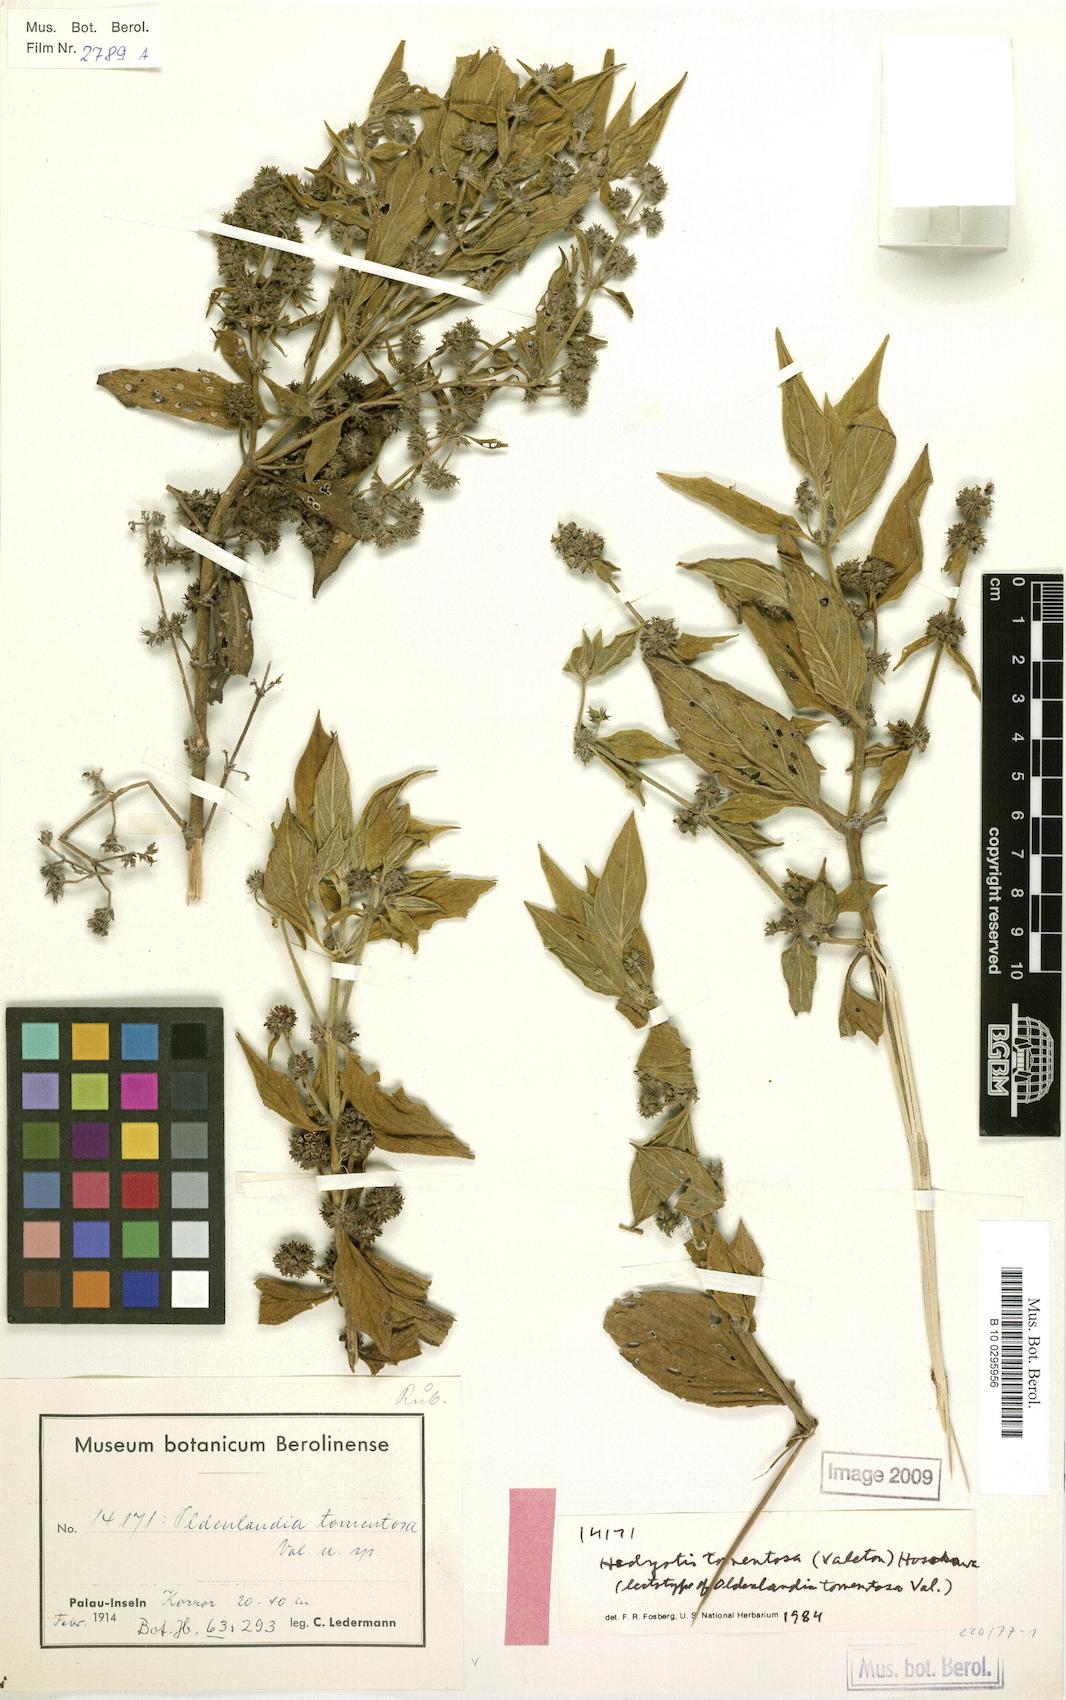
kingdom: Plantae
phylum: Tracheophyta
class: Magnoliopsida
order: Gentianales
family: Rubiaceae
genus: Hedyotis
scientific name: Hedyotis tomentosa
